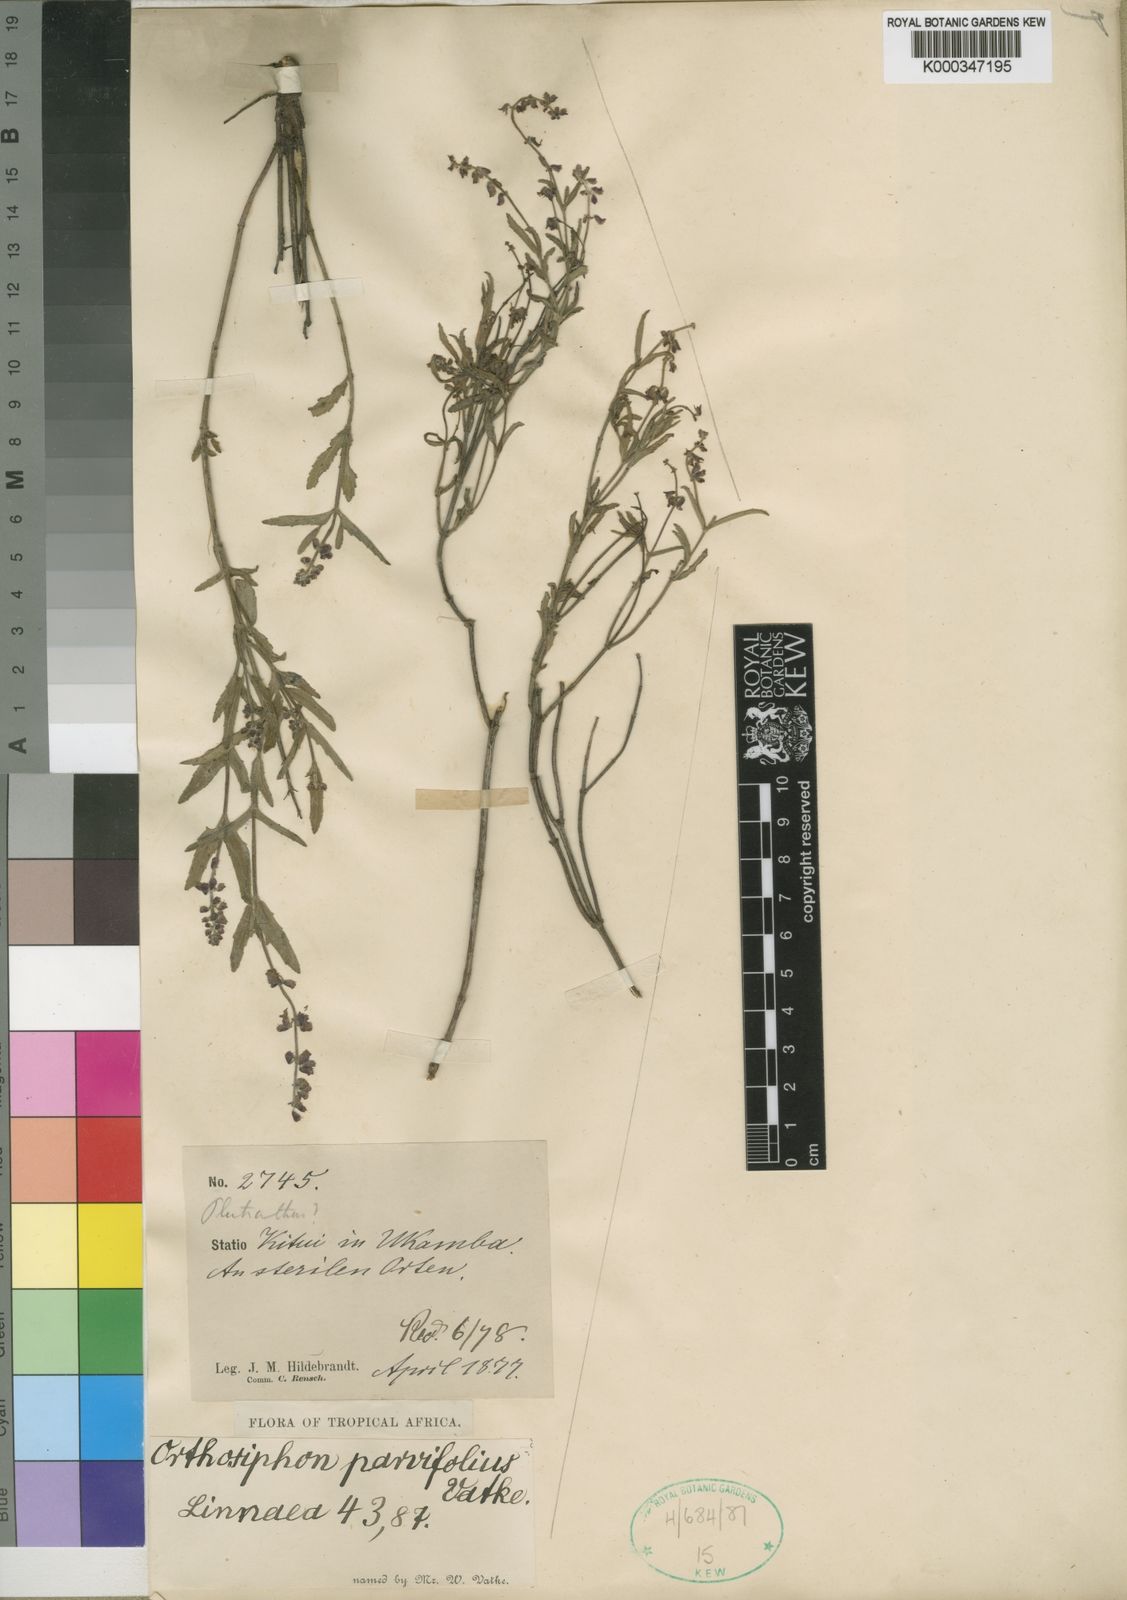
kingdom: Plantae
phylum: Tracheophyta
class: Magnoliopsida
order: Lamiales
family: Lamiaceae
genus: Orthosiphon
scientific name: Orthosiphon parvifolius
